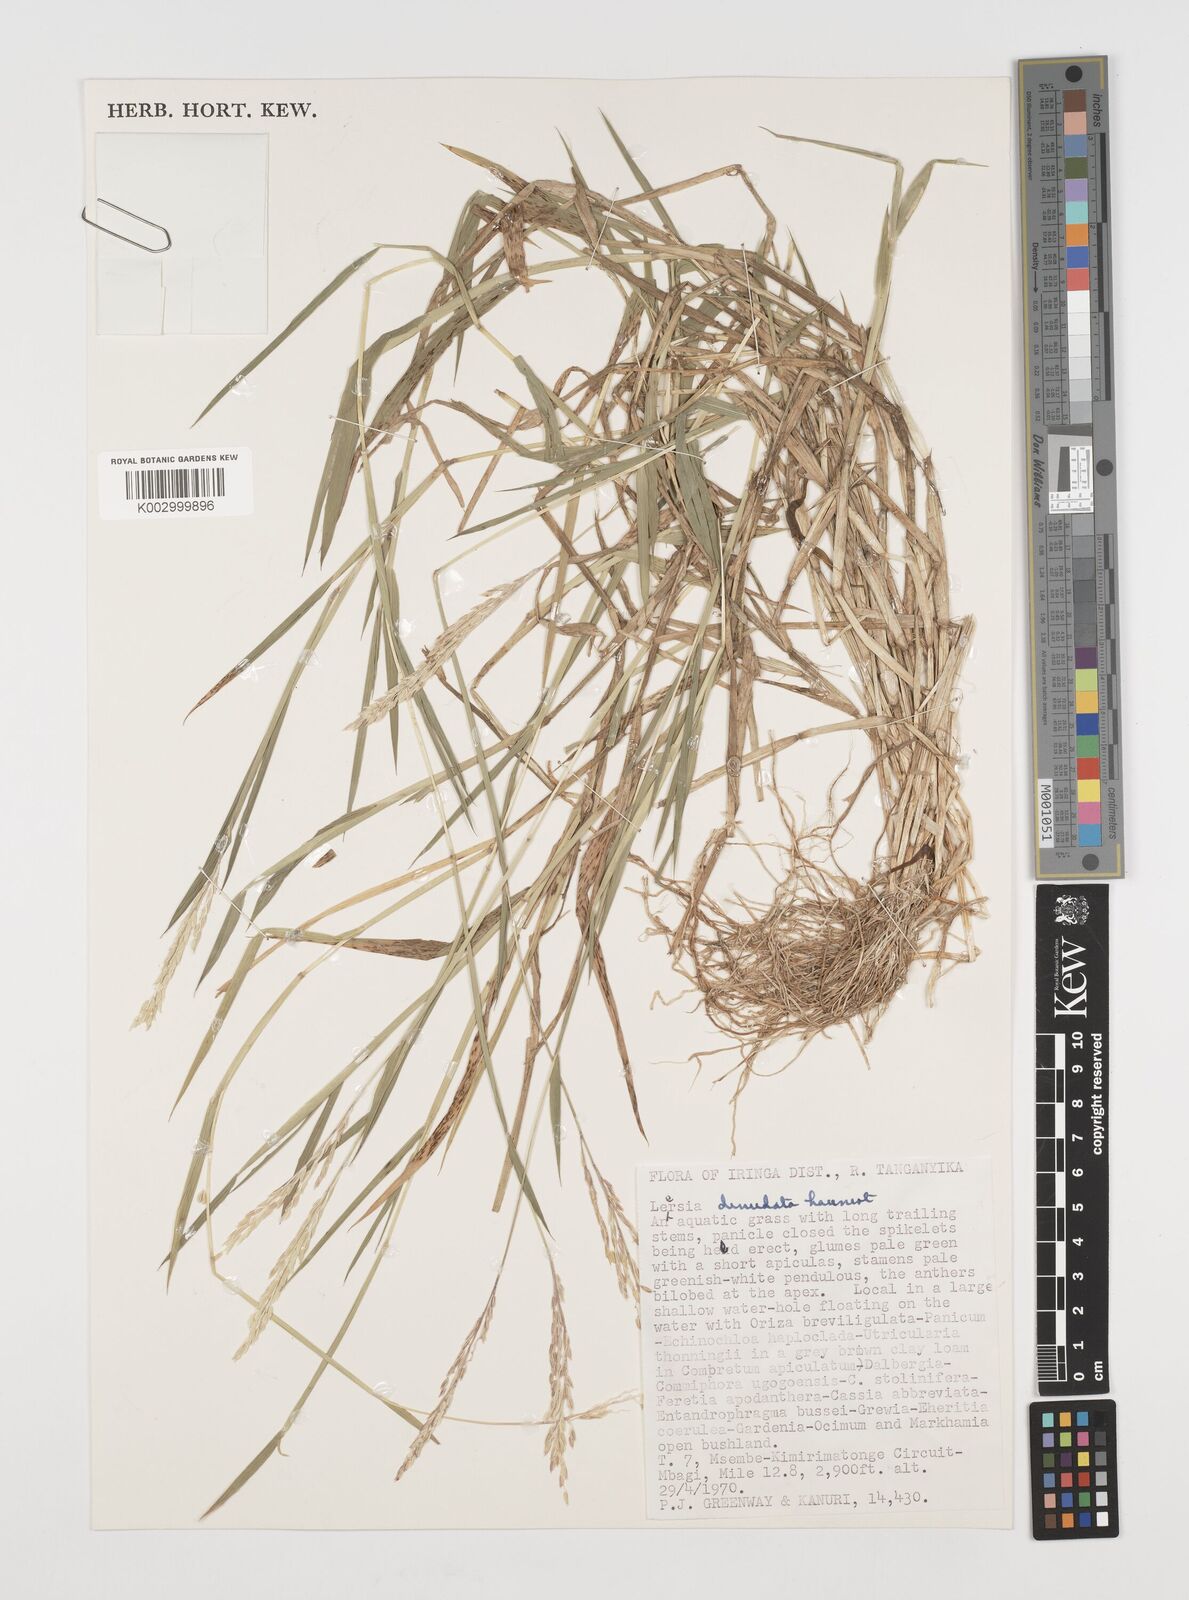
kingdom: Plantae
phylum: Tracheophyta
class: Liliopsida
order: Poales
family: Poaceae
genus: Leersia
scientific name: Leersia denudata
